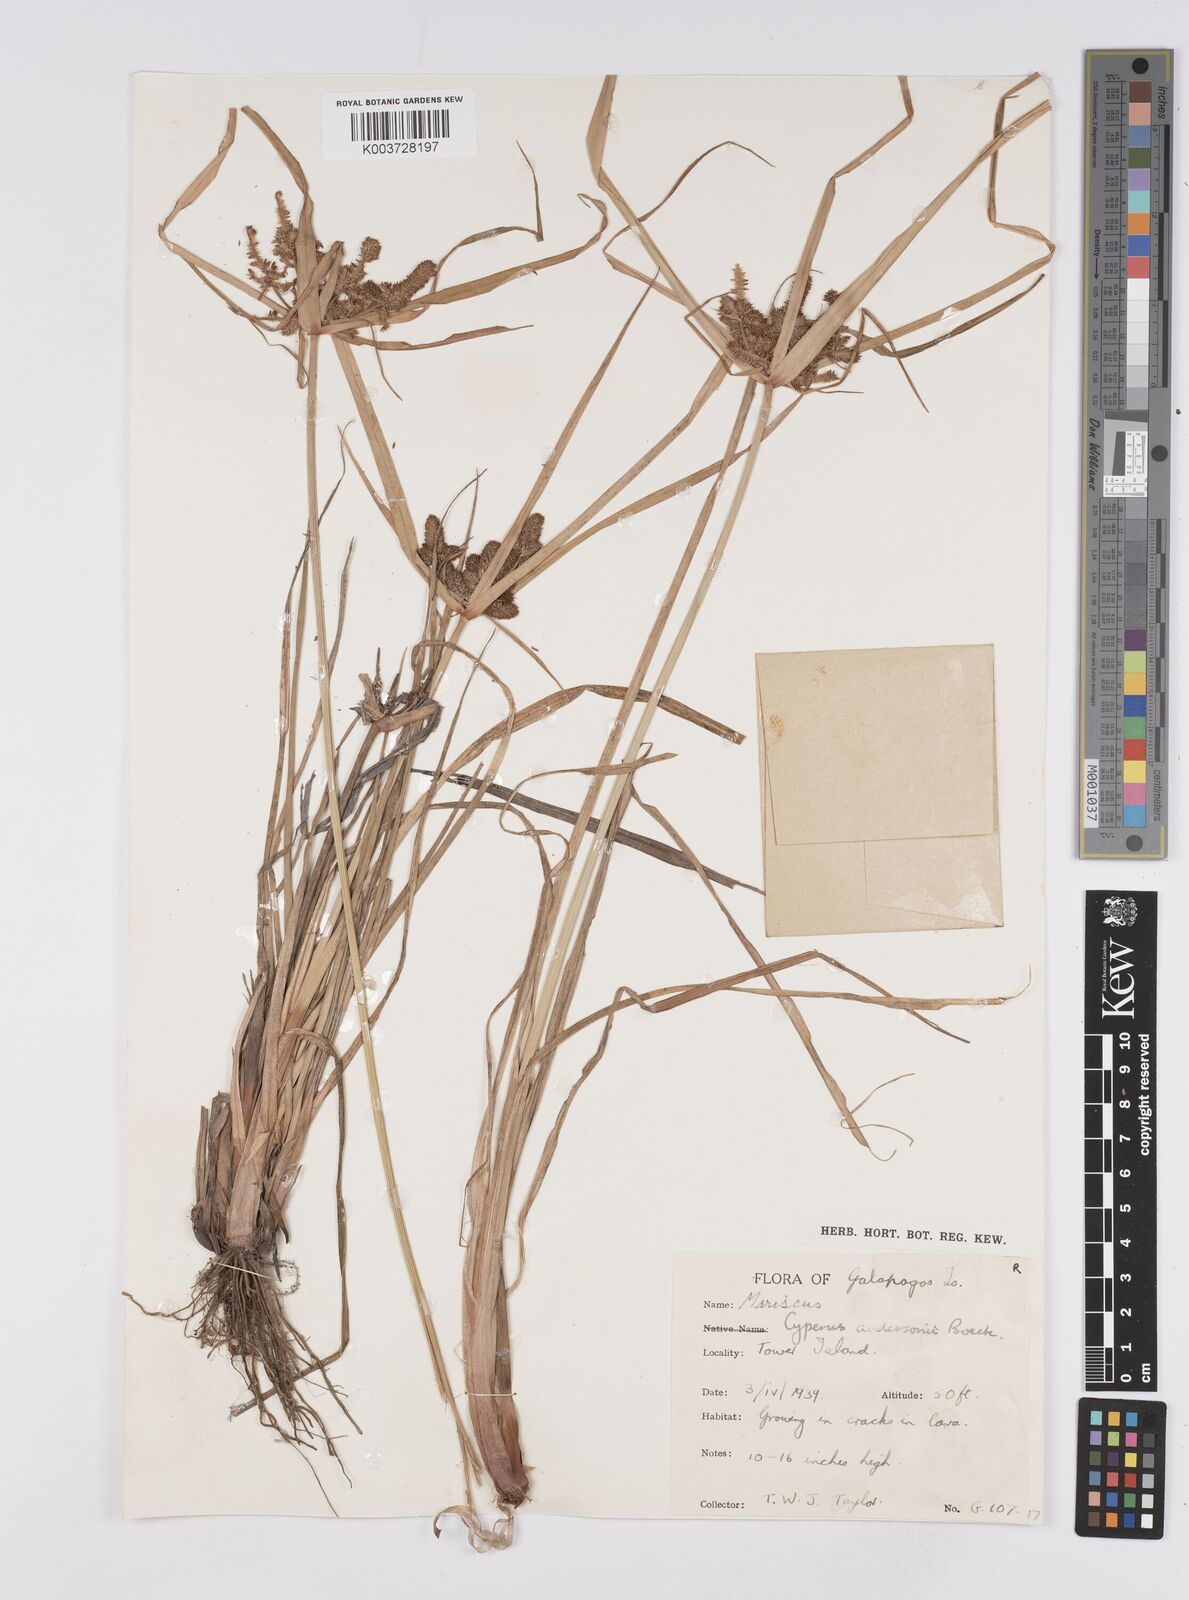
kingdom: Plantae
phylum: Tracheophyta
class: Liliopsida
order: Poales
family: Cyperaceae
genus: Cyperus
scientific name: Cyperus anderssonii
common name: Andersson's sedge
